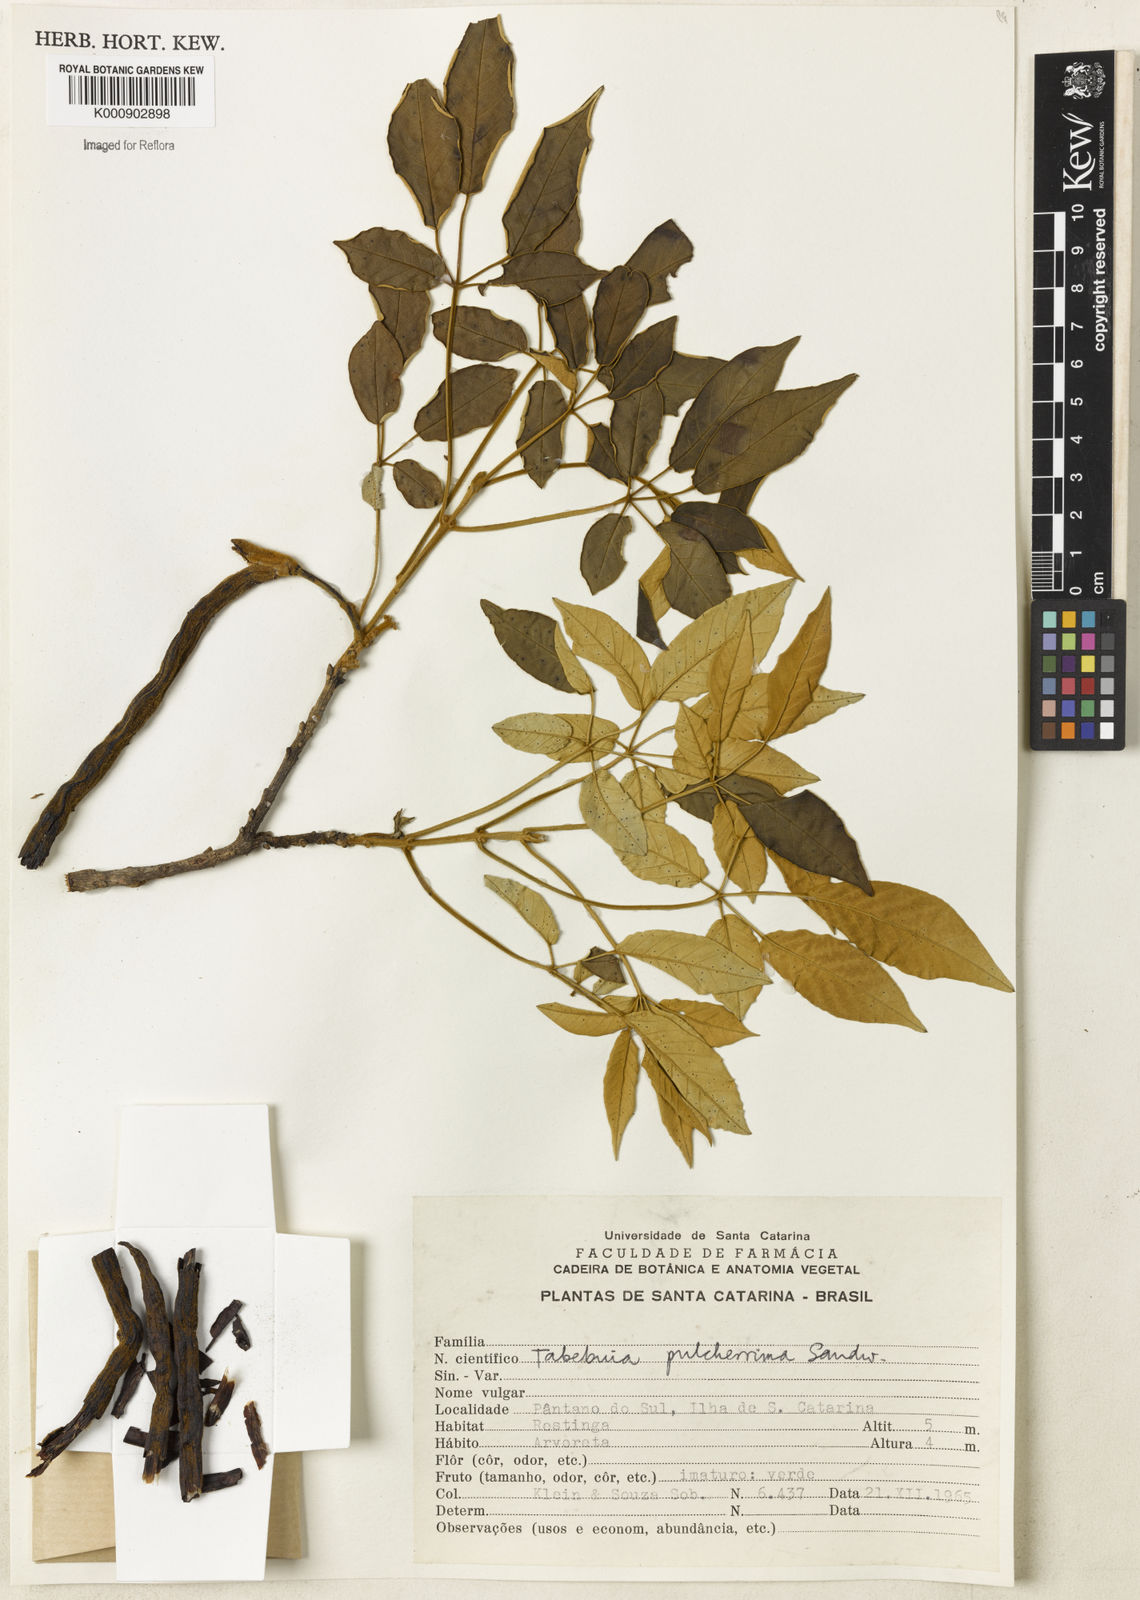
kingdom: Plantae
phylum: Tracheophyta
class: Magnoliopsida
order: Lamiales
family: Bignoniaceae
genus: Handroanthus
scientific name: Handroanthus pulcherrimus
